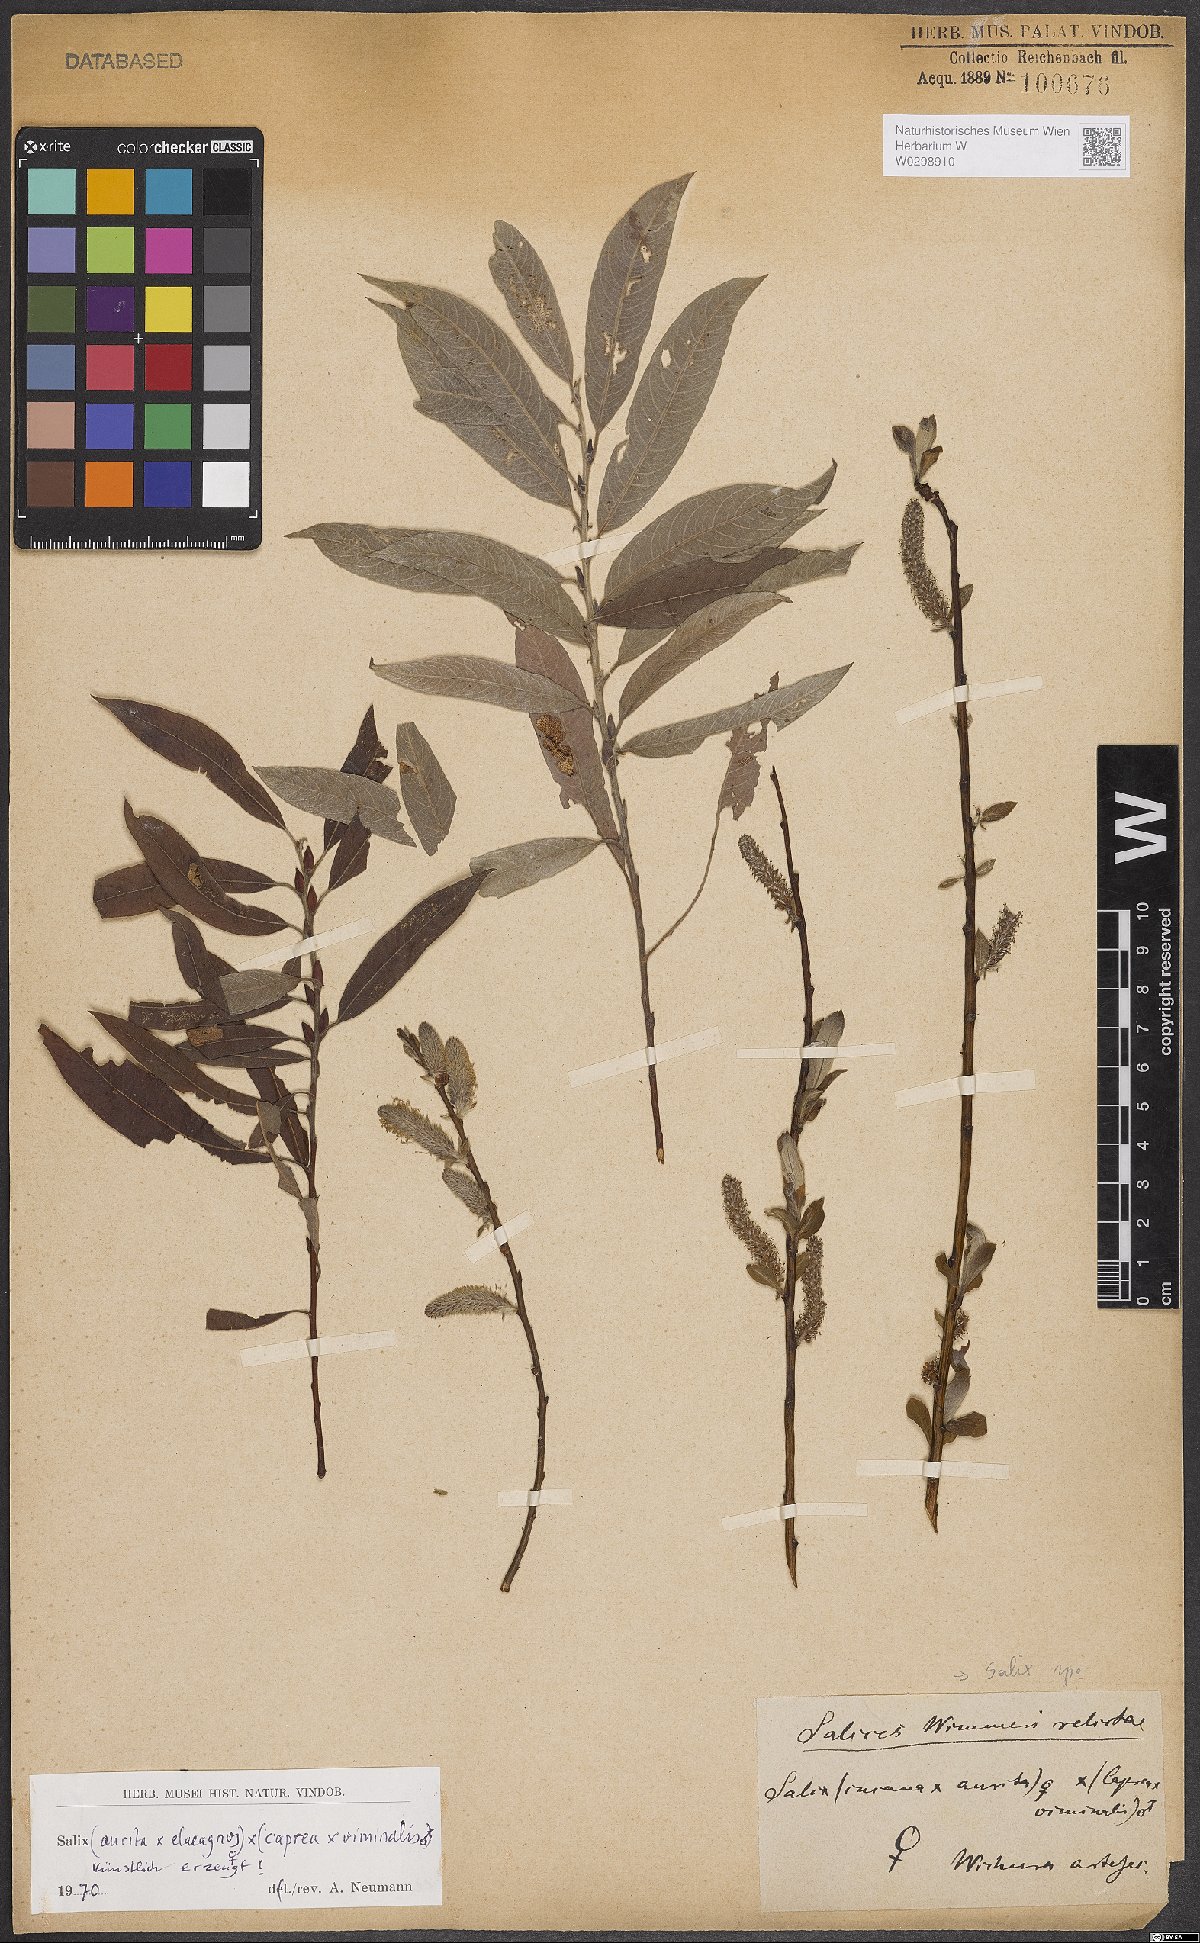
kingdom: Plantae
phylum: Tracheophyta
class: Magnoliopsida
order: Malpighiales
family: Salicaceae
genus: Salix
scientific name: Salix
